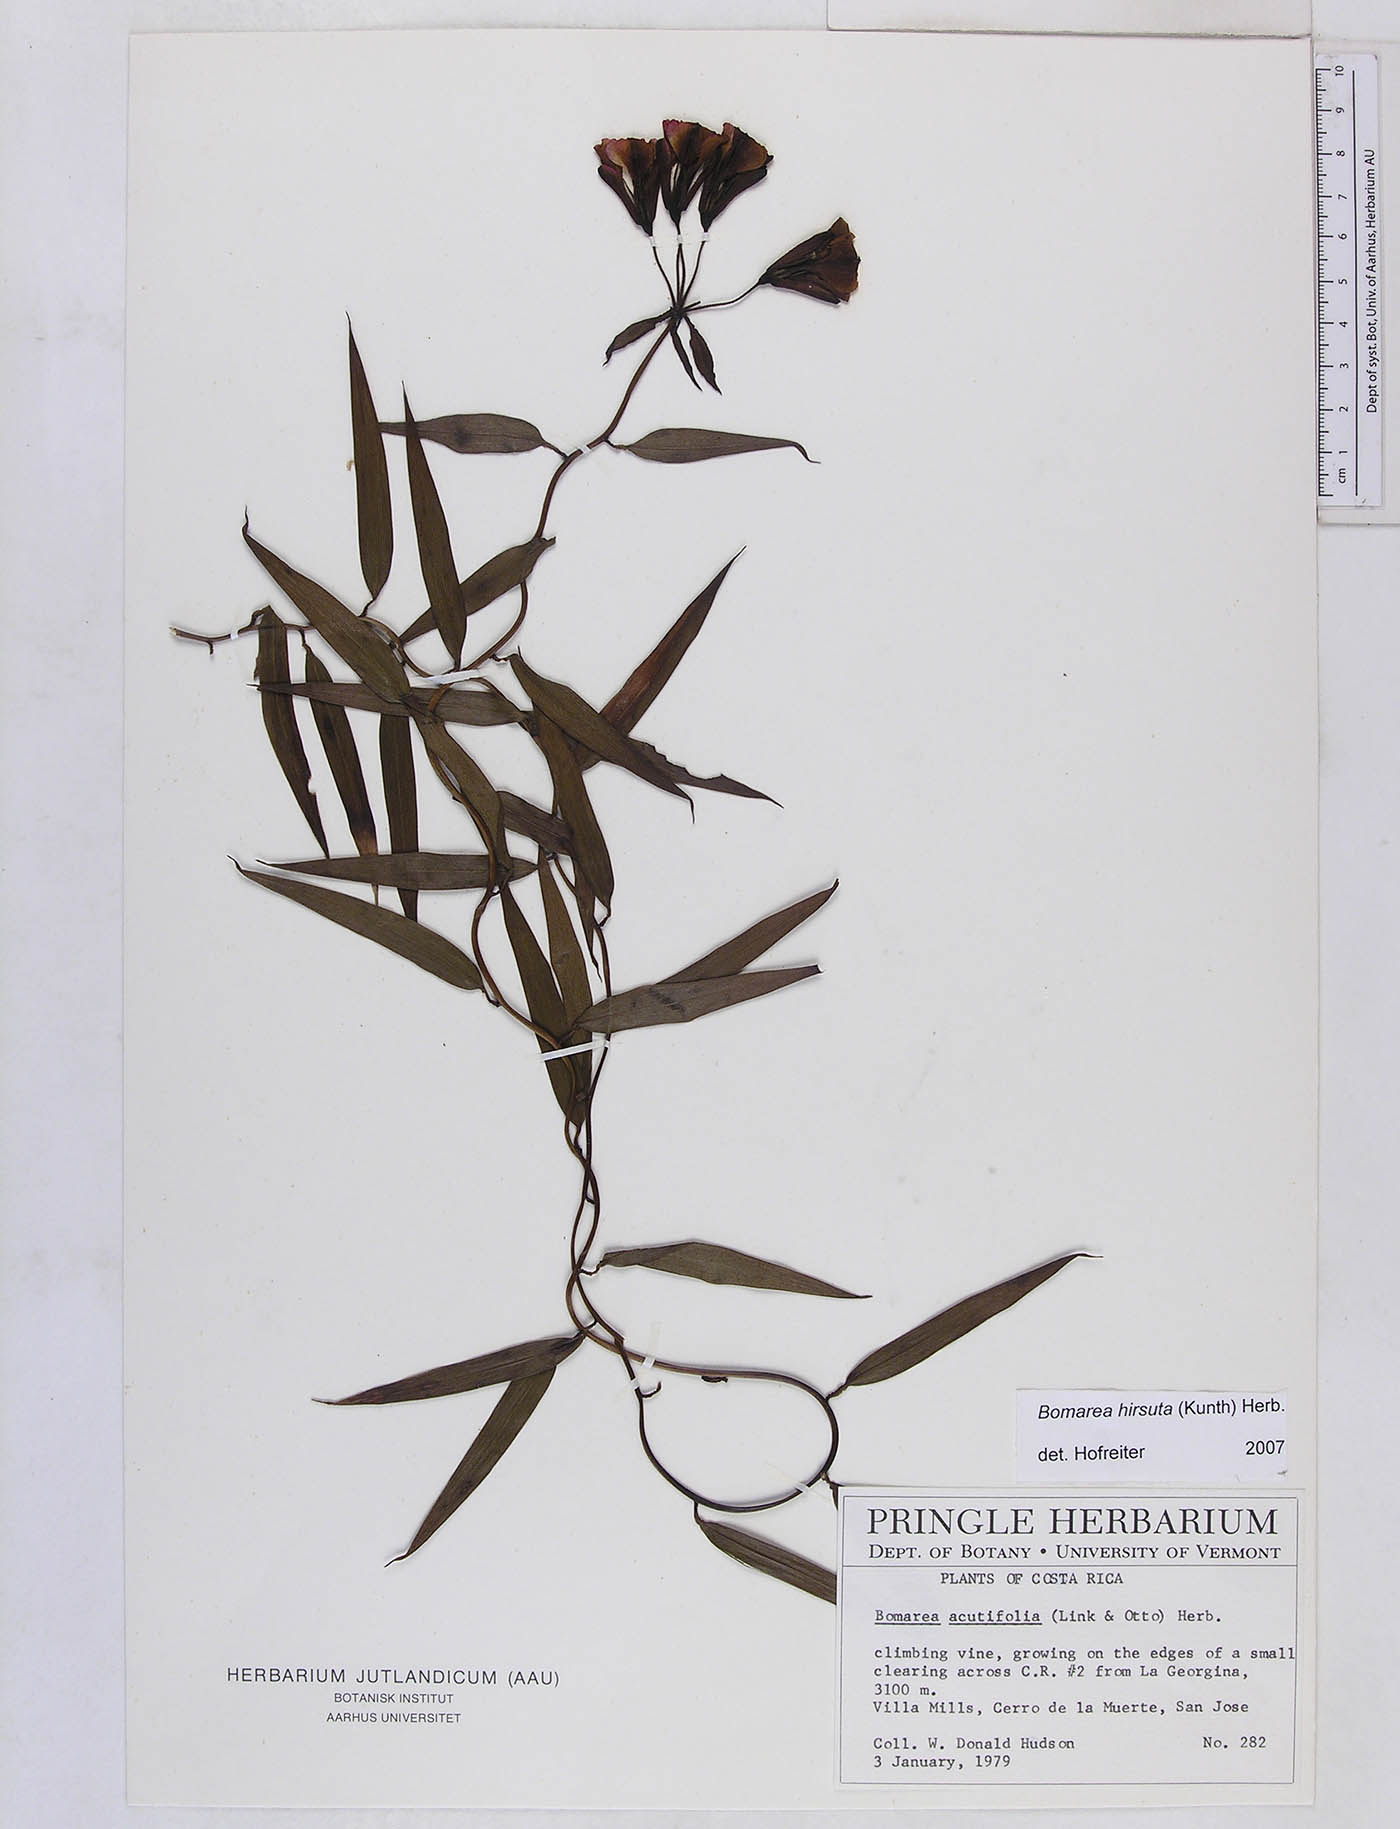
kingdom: Plantae
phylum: Tracheophyta
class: Liliopsida
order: Liliales
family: Alstroemeriaceae
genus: Bomarea
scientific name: Bomarea hirsuta
